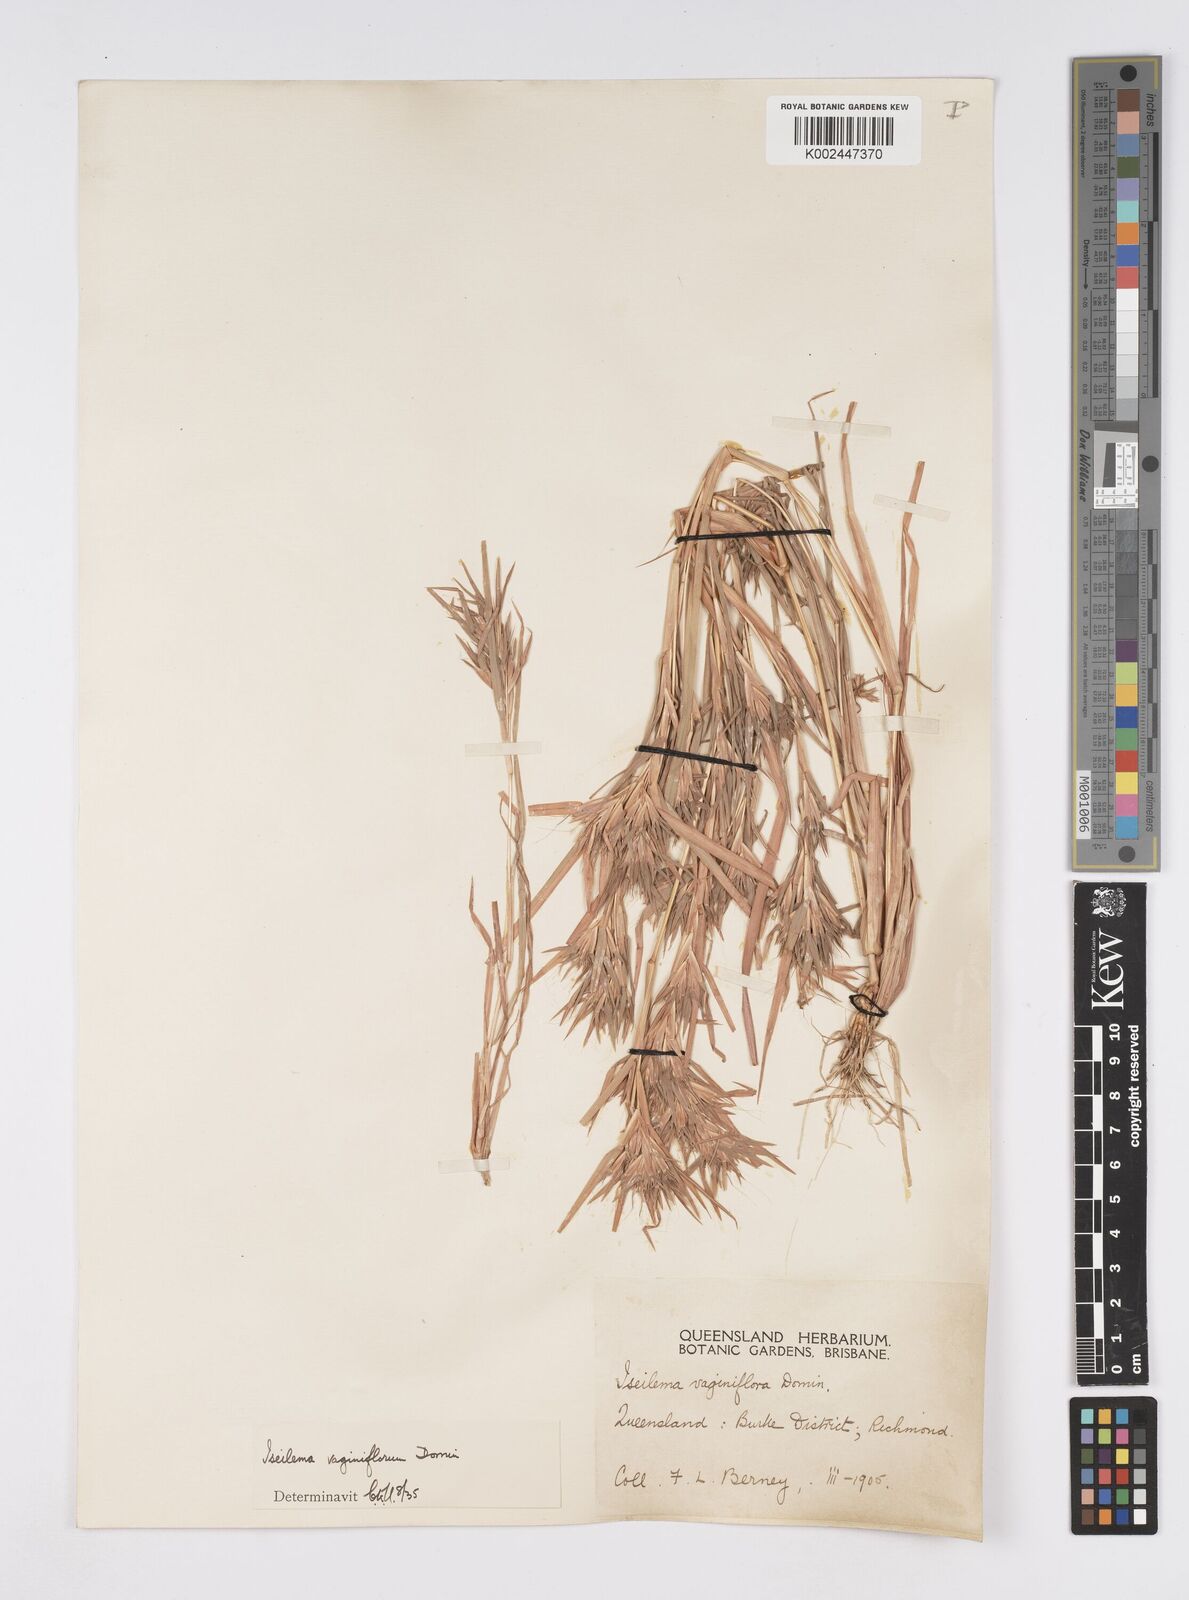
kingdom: Plantae
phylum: Tracheophyta
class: Liliopsida
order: Poales
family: Poaceae
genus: Iseilema
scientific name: Iseilema vaginiflorum
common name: Red flinders grass
